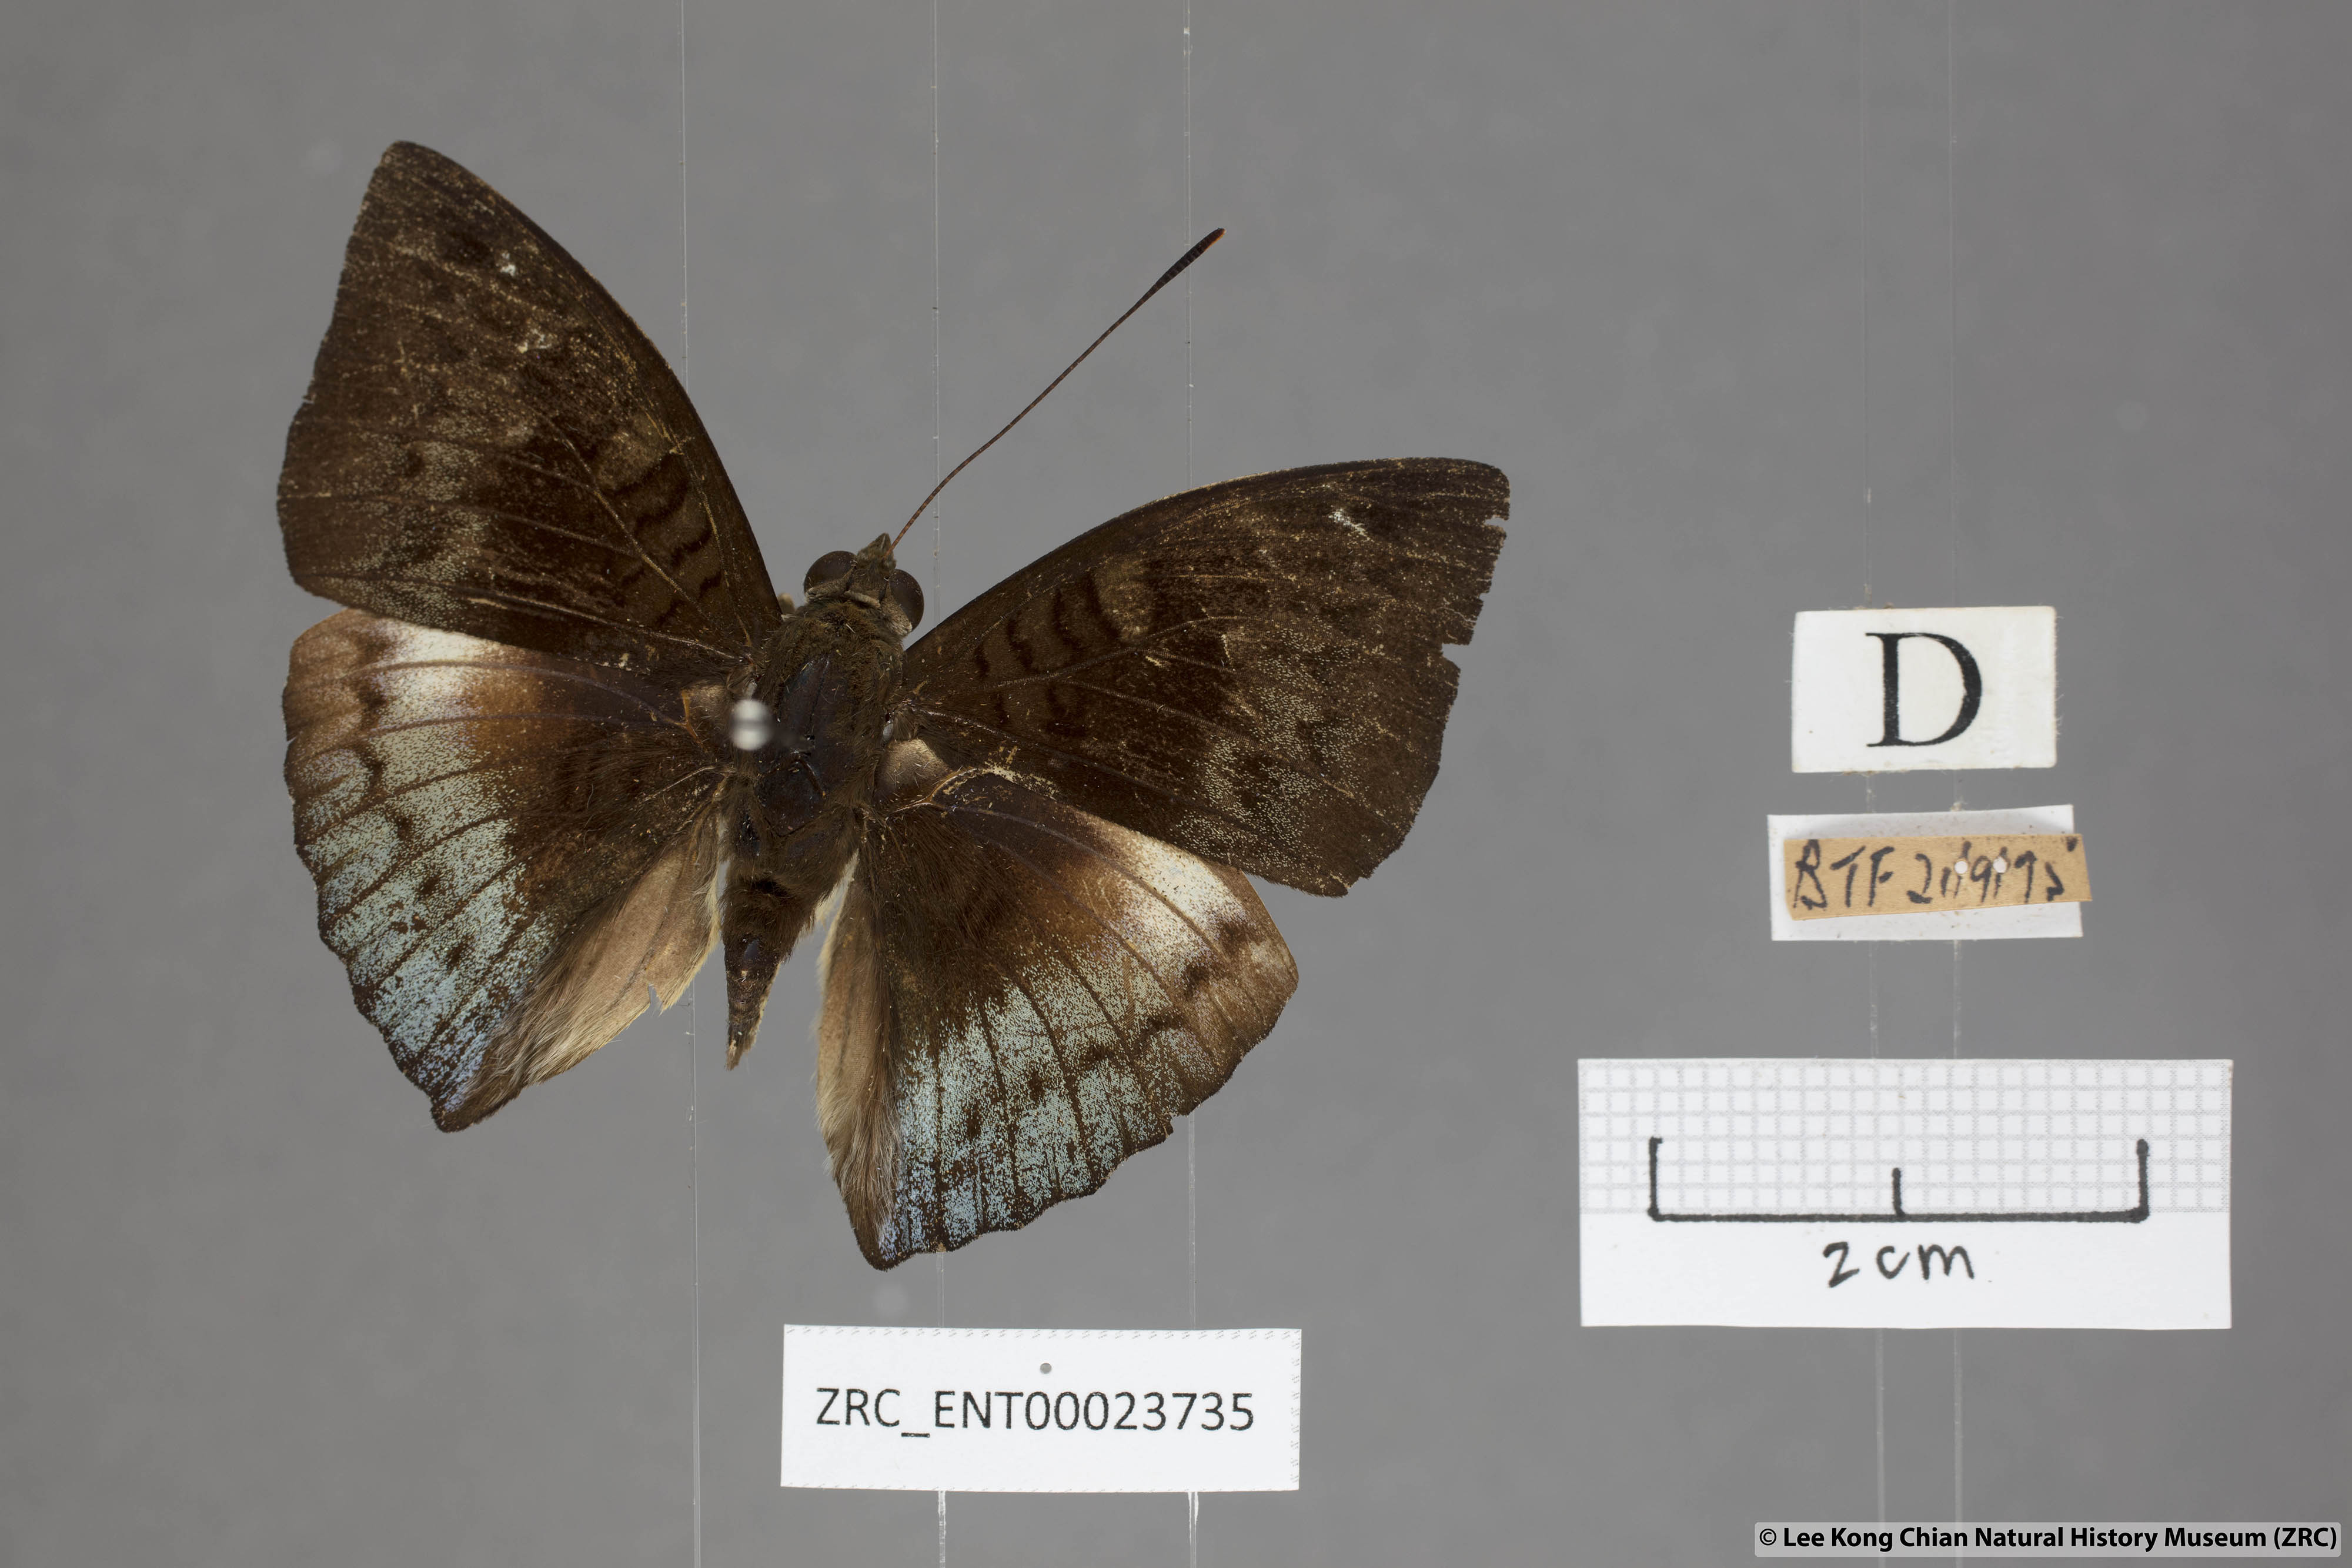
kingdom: Animalia
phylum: Arthropoda
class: Insecta
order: Lepidoptera
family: Nymphalidae
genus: Euthalia
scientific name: Euthalia monina
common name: Powdered baron
